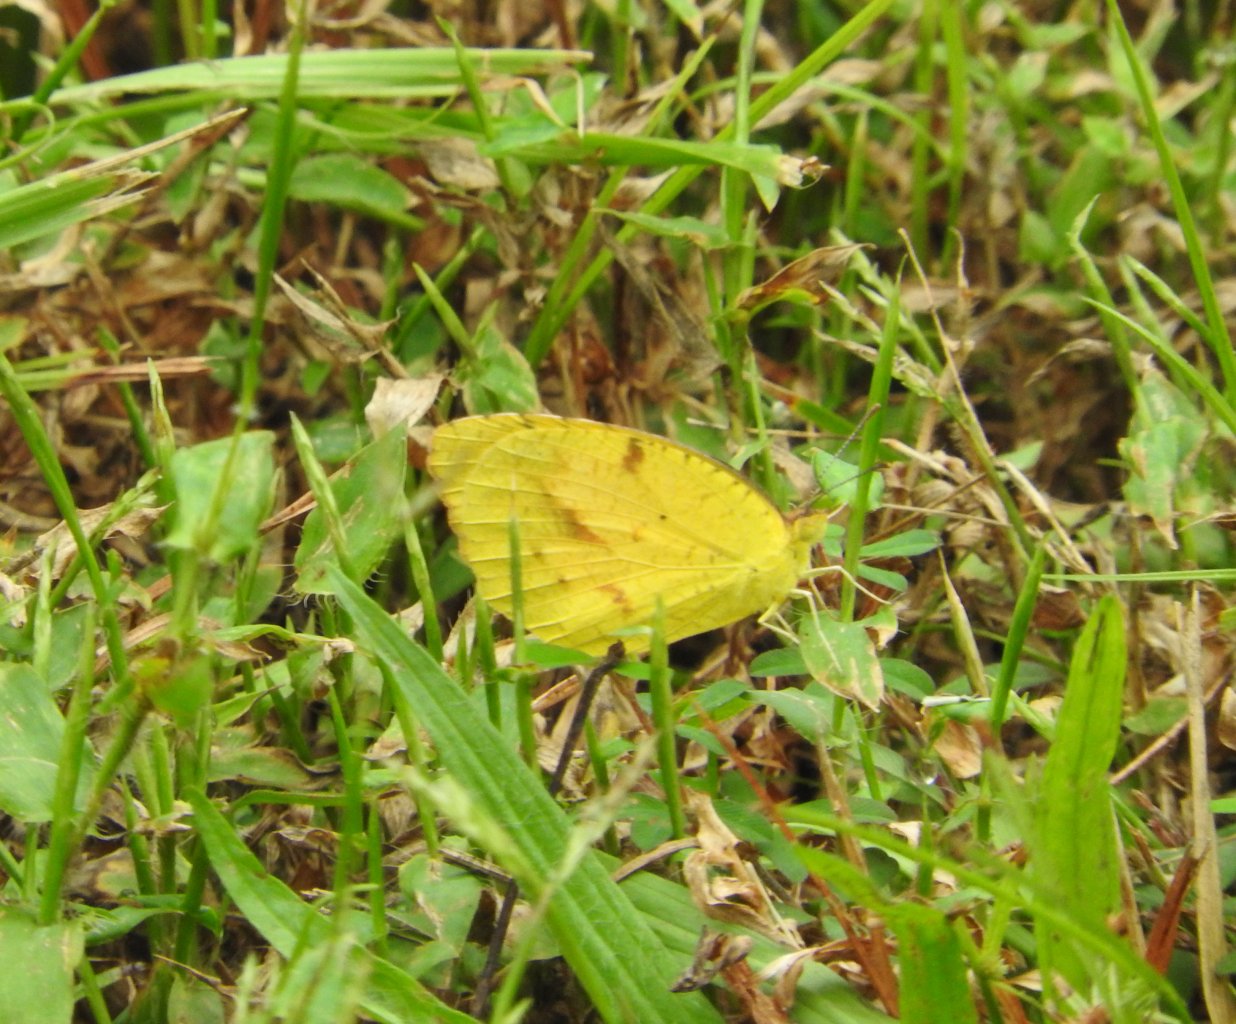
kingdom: Animalia
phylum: Arthropoda
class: Insecta
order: Lepidoptera
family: Pieridae
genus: Abaeis
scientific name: Abaeis nicippe
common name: Sleepy Orange
